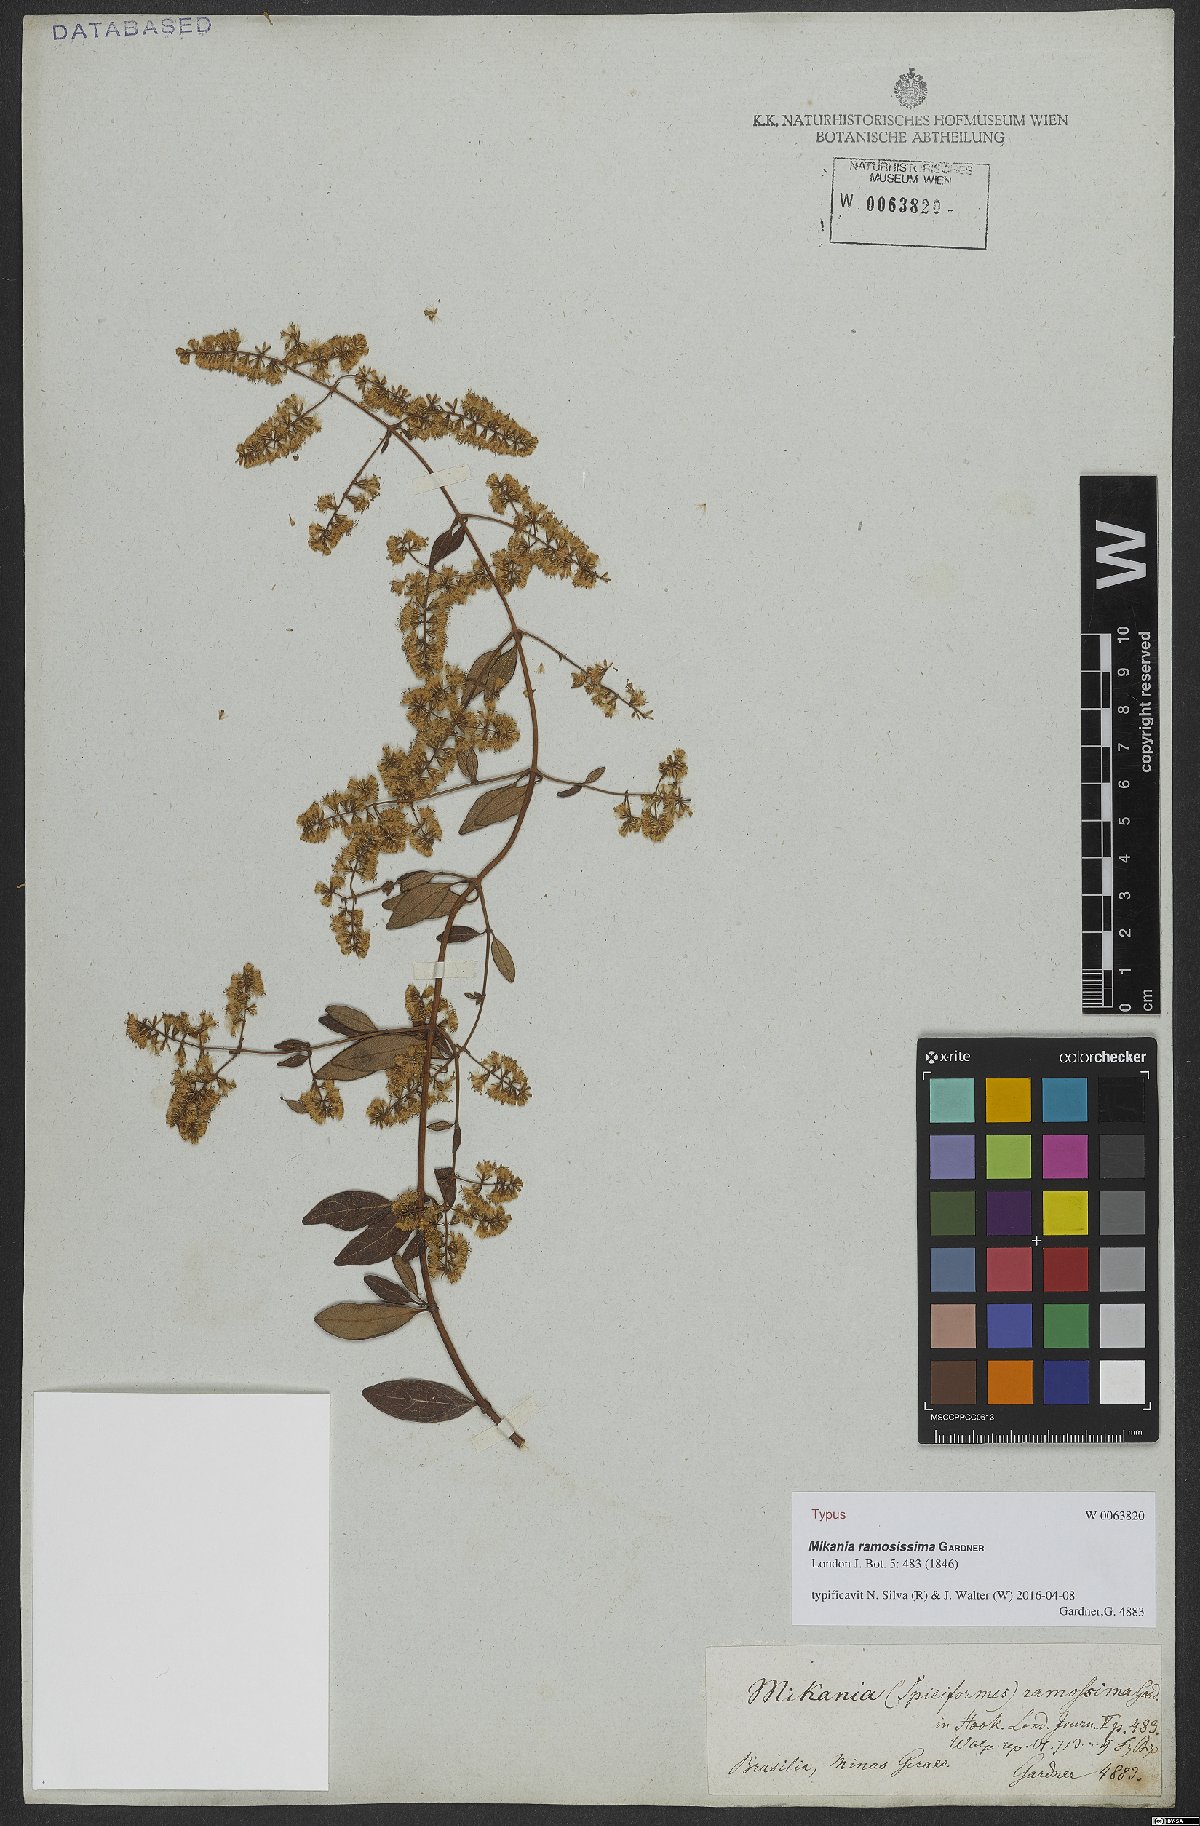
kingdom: Plantae
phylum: Tracheophyta
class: Magnoliopsida
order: Asterales
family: Asteraceae
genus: Mikania
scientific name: Mikania ramosissima
